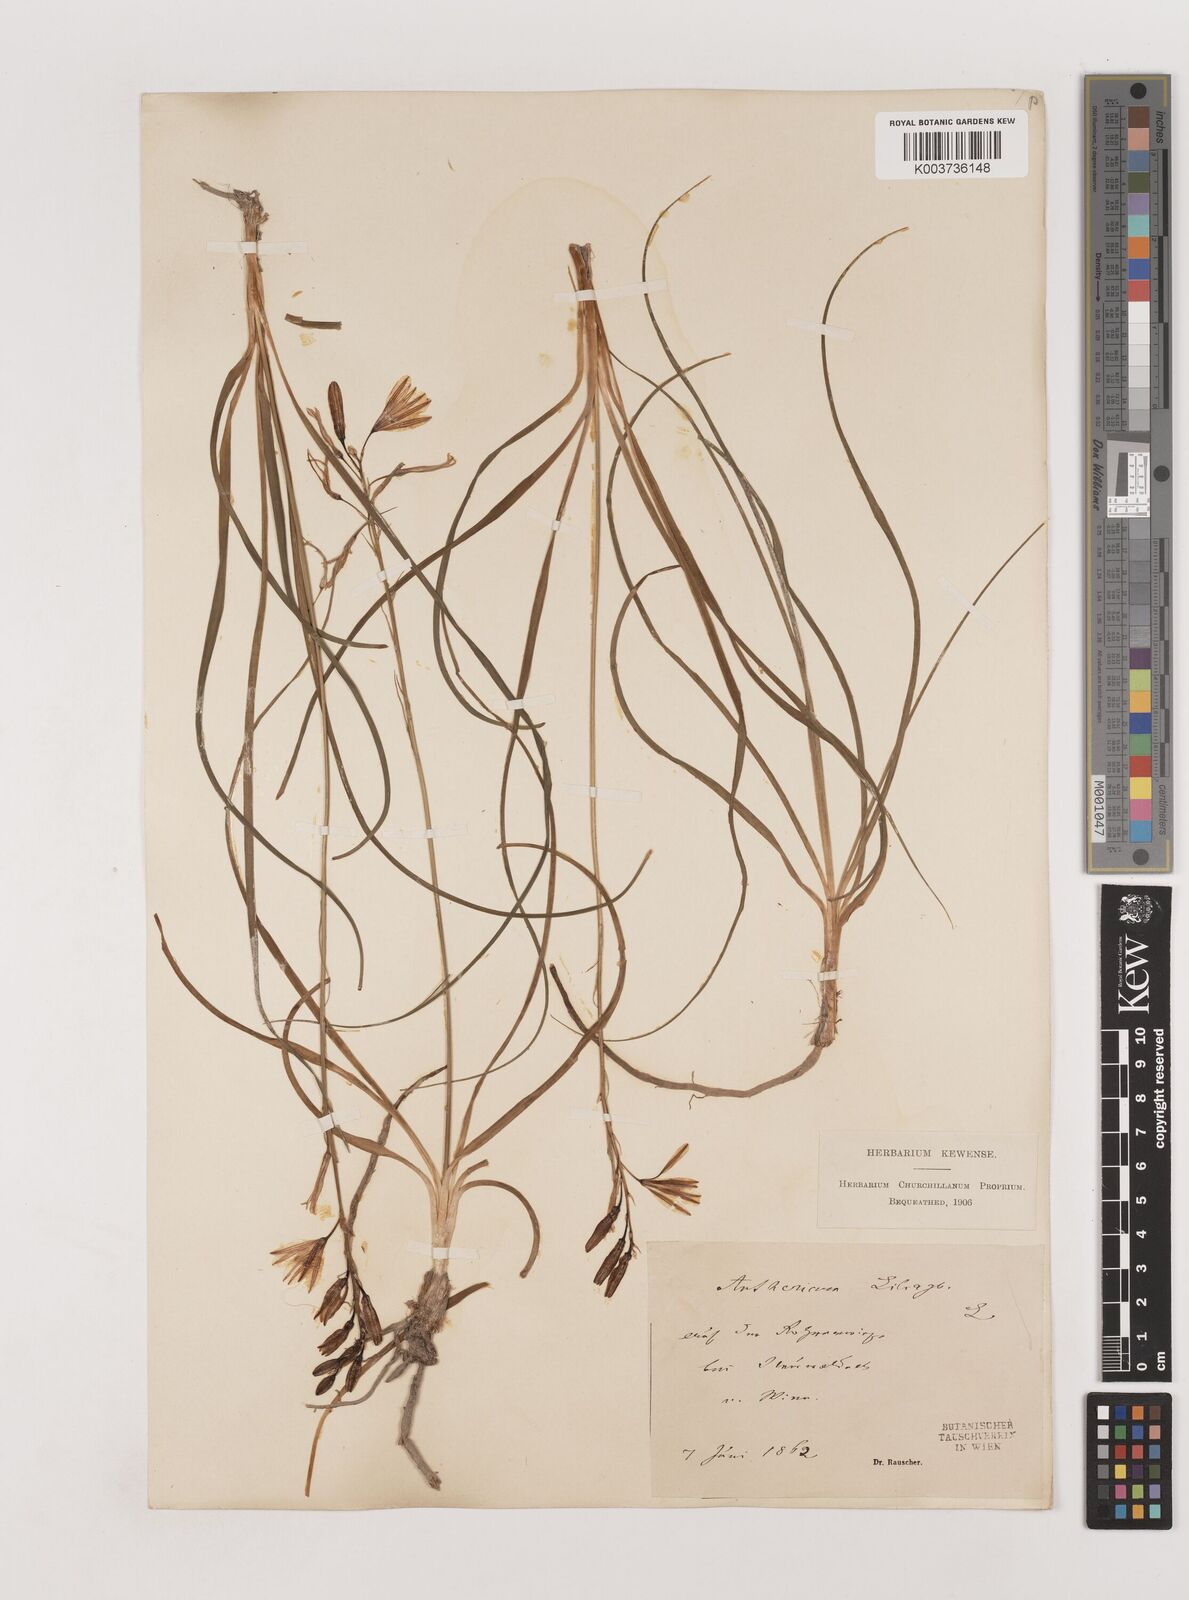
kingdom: Plantae
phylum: Tracheophyta
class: Liliopsida
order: Asparagales
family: Asparagaceae
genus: Anthericum
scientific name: Anthericum liliago
